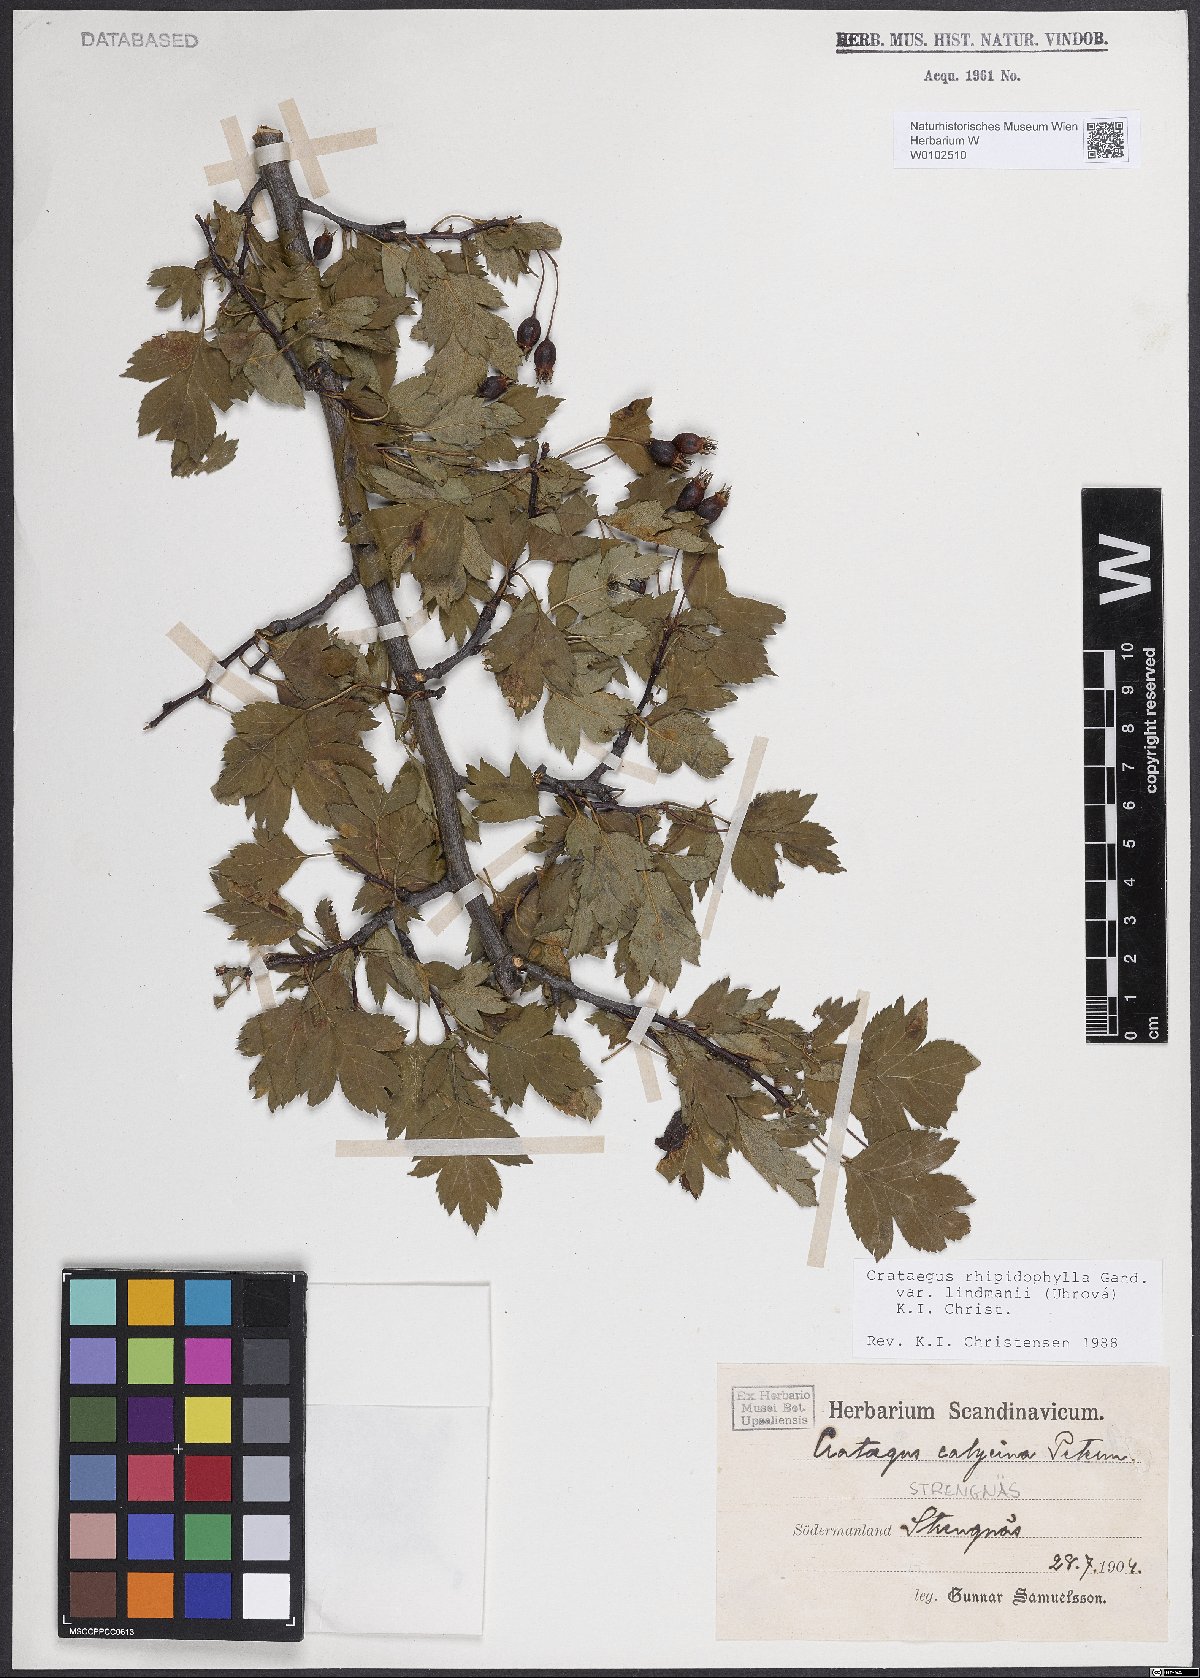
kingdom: Plantae
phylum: Tracheophyta
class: Magnoliopsida
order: Rosales
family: Rosaceae
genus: Crataegus
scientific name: Crataegus lindmanii
